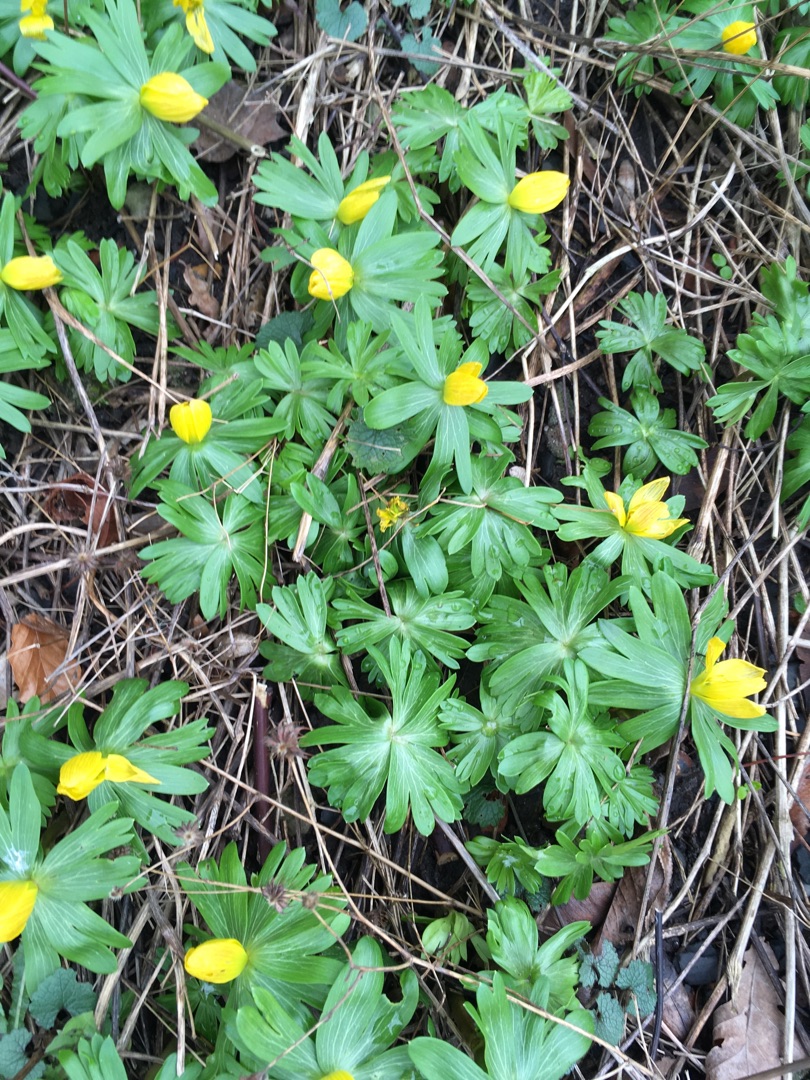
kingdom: Plantae
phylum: Tracheophyta
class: Magnoliopsida
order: Ranunculales
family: Ranunculaceae
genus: Eranthis
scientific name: Eranthis hyemalis
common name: Erantis
